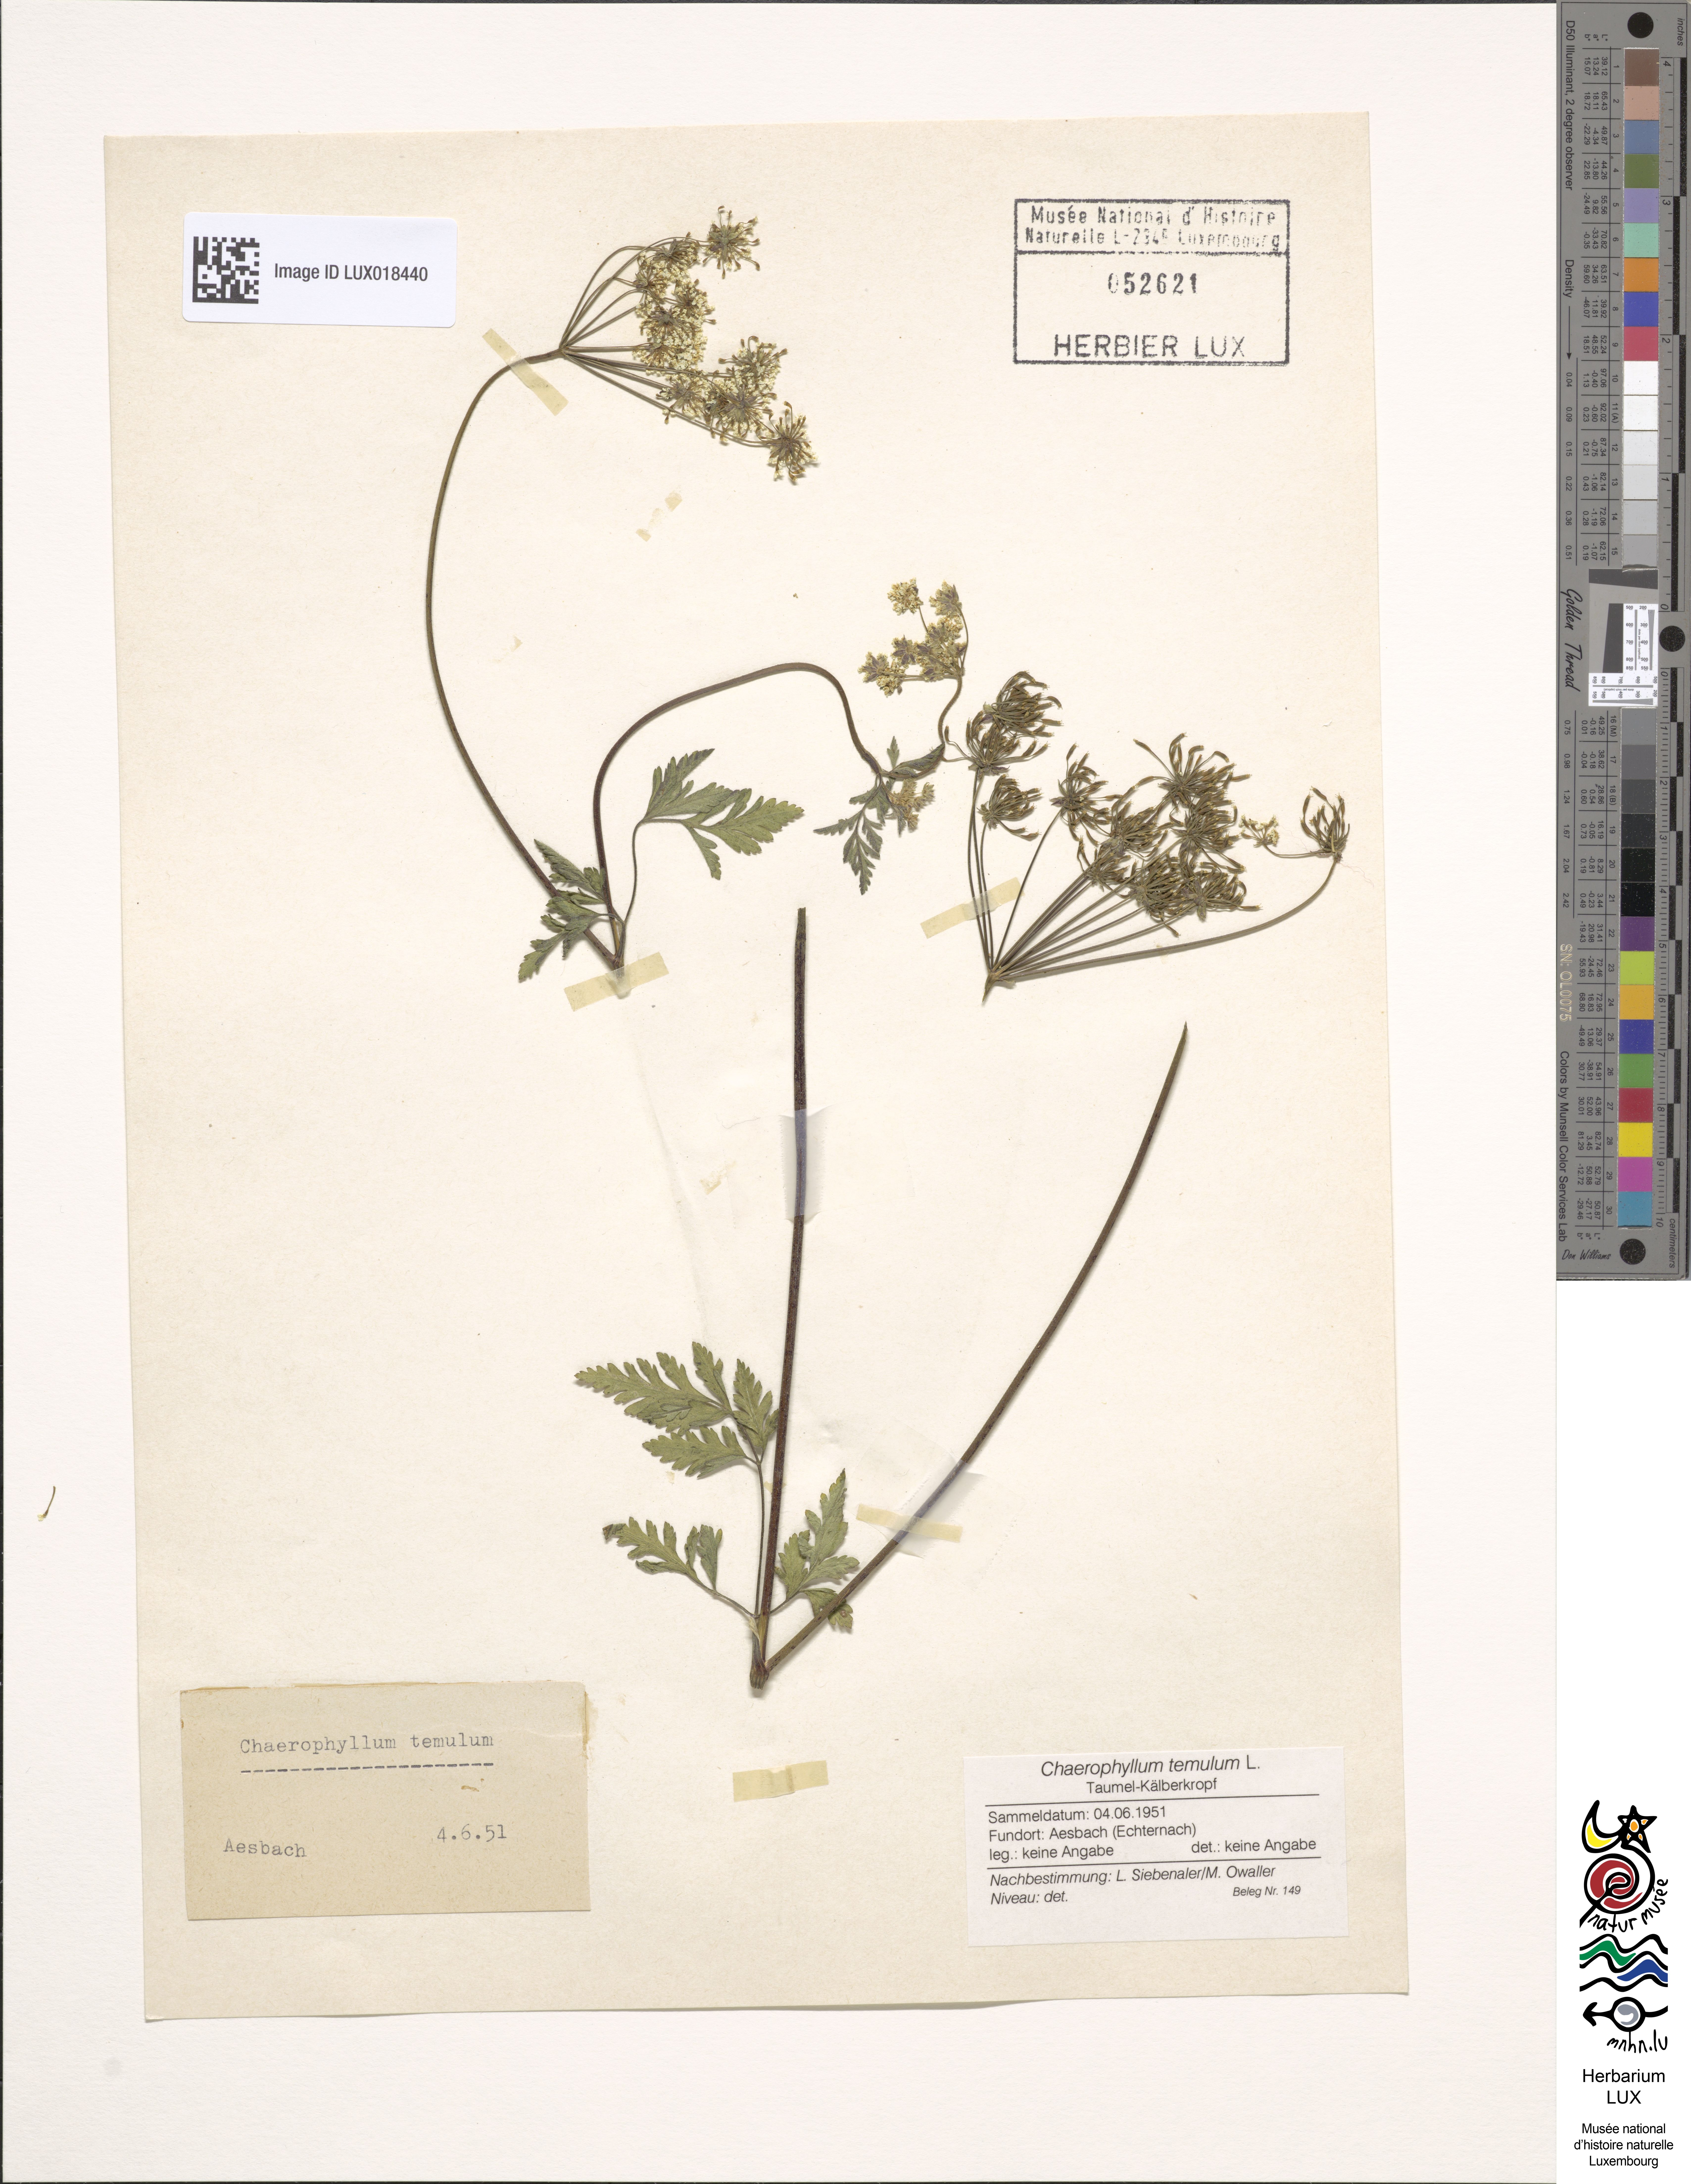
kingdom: Plantae
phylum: Tracheophyta
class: Magnoliopsida
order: Apiales
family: Apiaceae
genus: Chaerophyllum
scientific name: Chaerophyllum temulum
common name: Rough chervil
